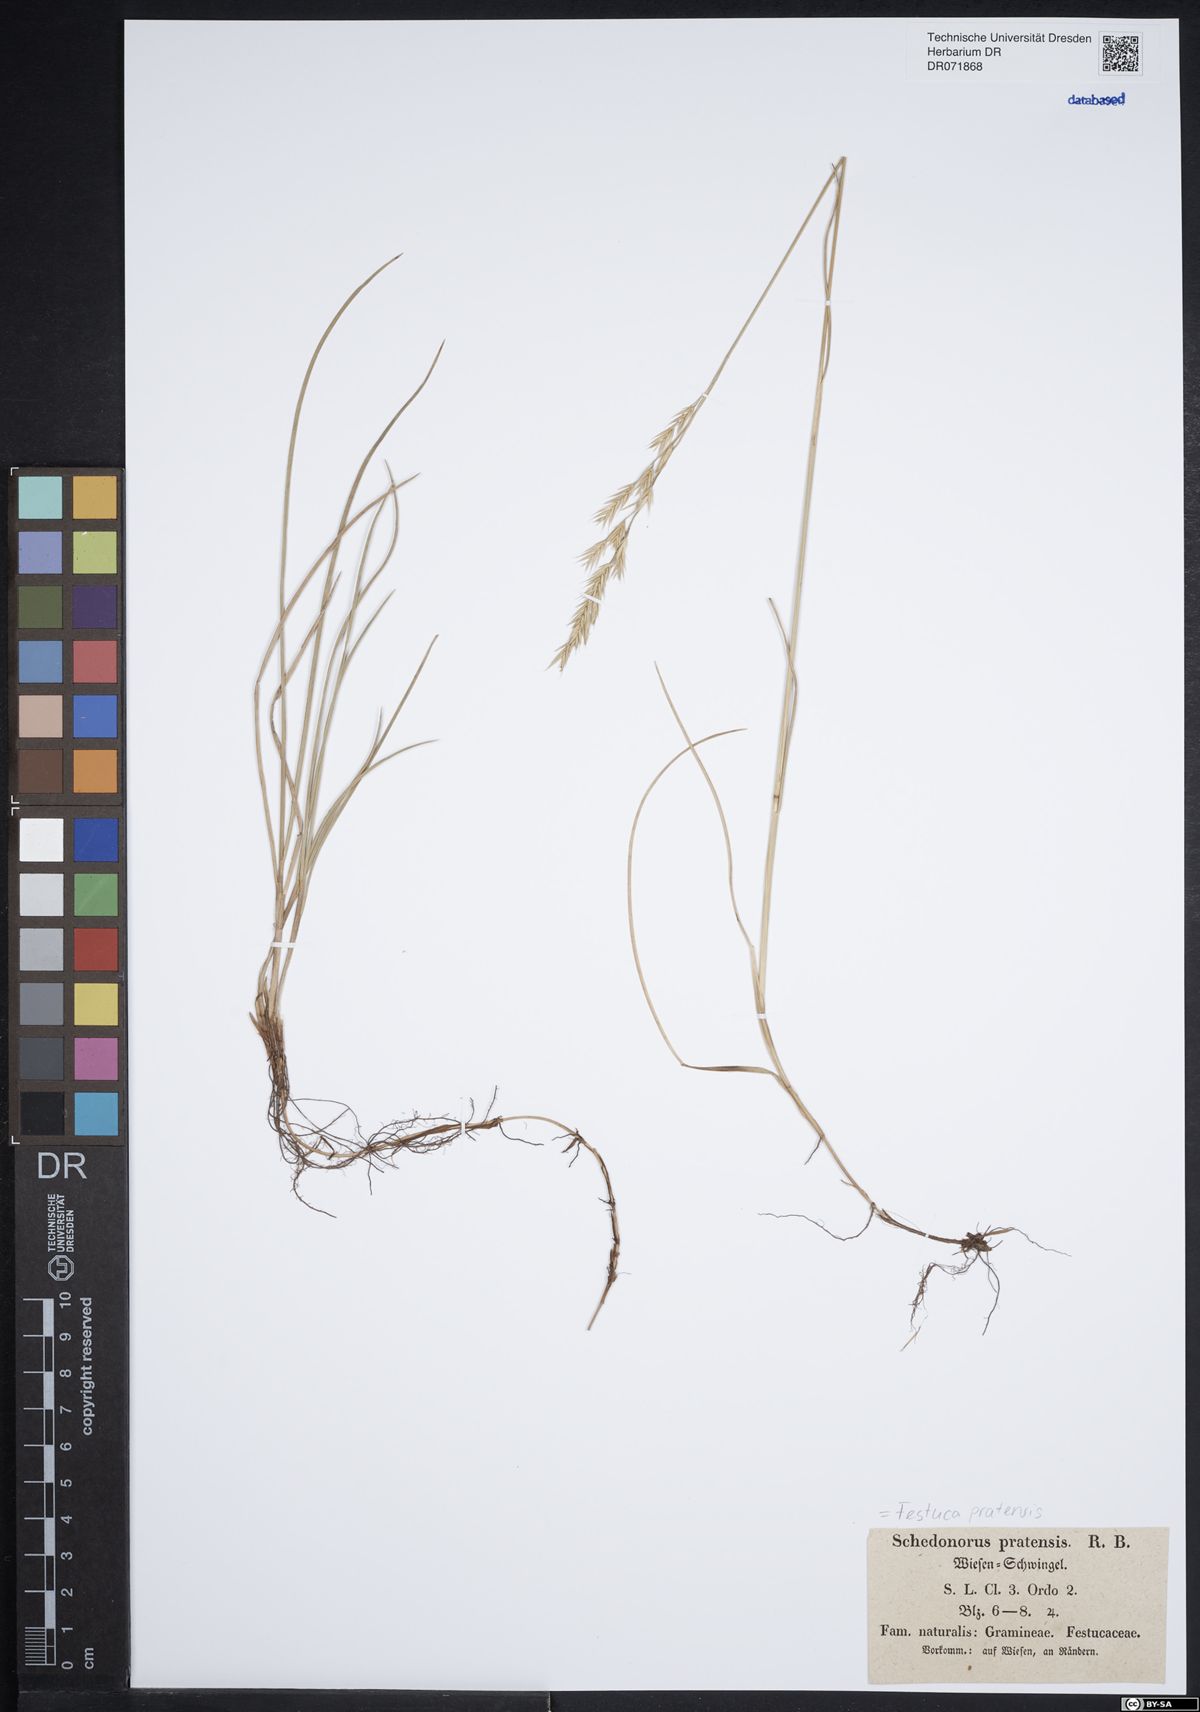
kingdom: Plantae
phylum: Tracheophyta
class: Liliopsida
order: Poales
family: Poaceae
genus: Lolium
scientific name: Lolium pratense
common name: Dover grass
